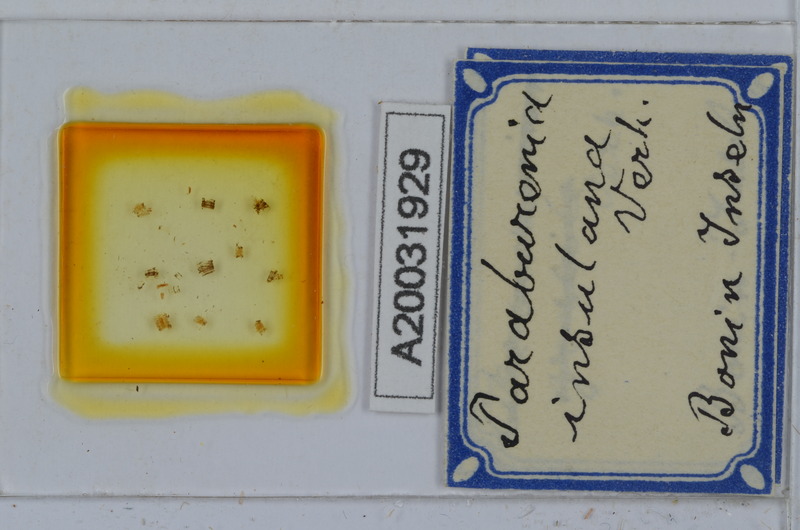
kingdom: Animalia
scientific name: Animalia
